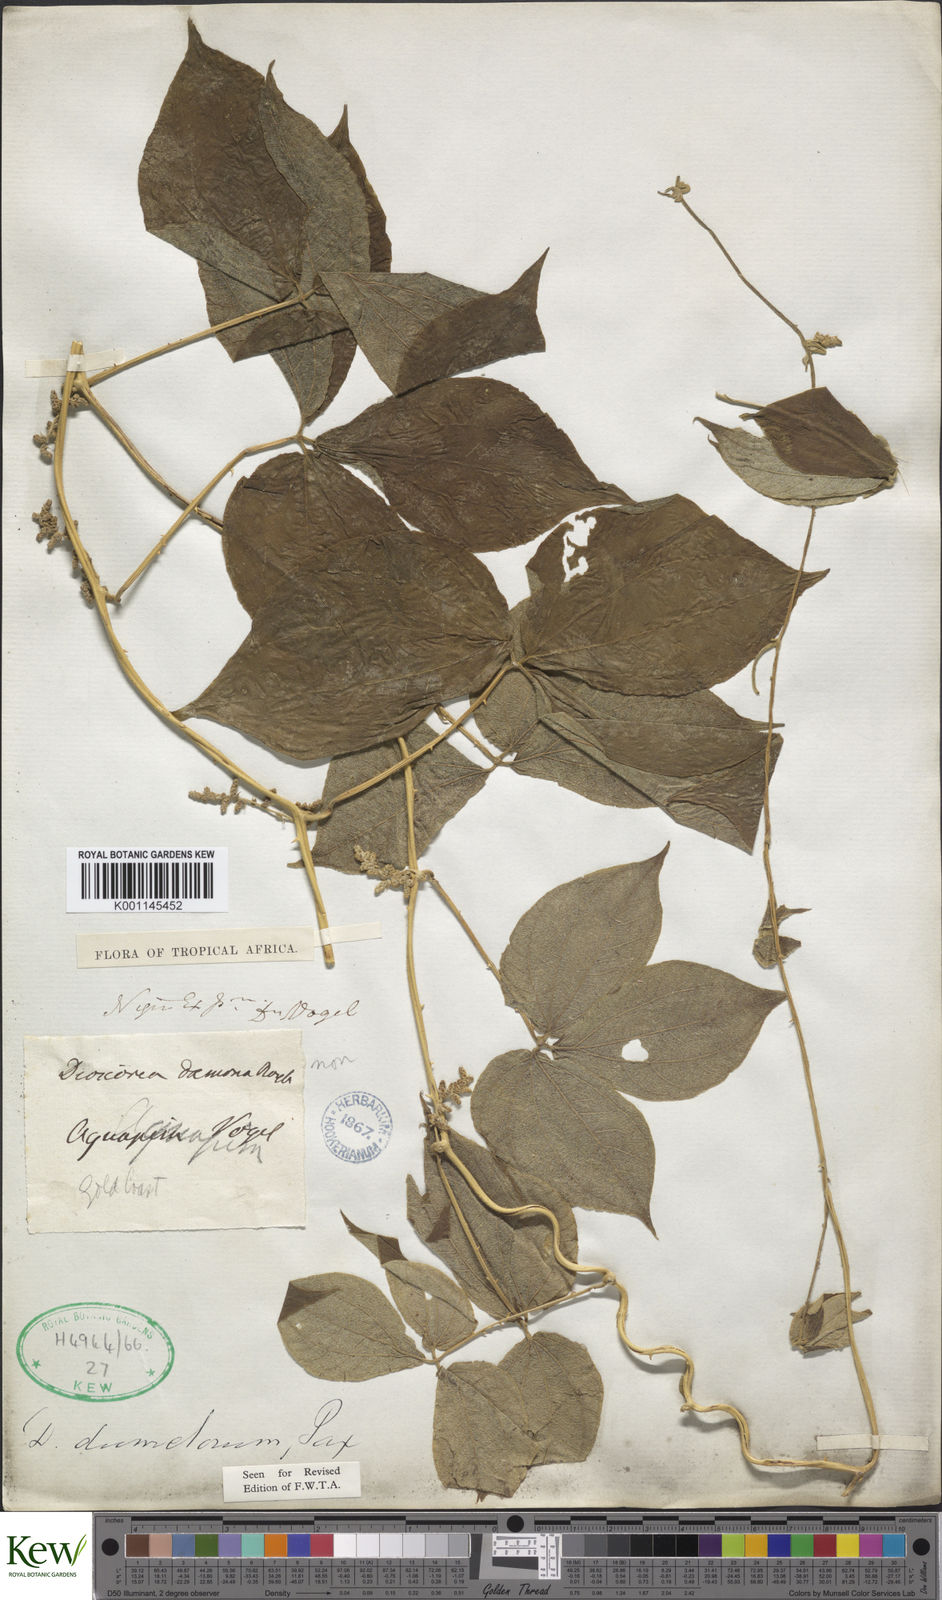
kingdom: Plantae
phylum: Tracheophyta
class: Liliopsida
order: Dioscoreales
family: Dioscoreaceae
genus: Dioscorea
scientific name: Dioscorea dumetorum
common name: African bitter yam
